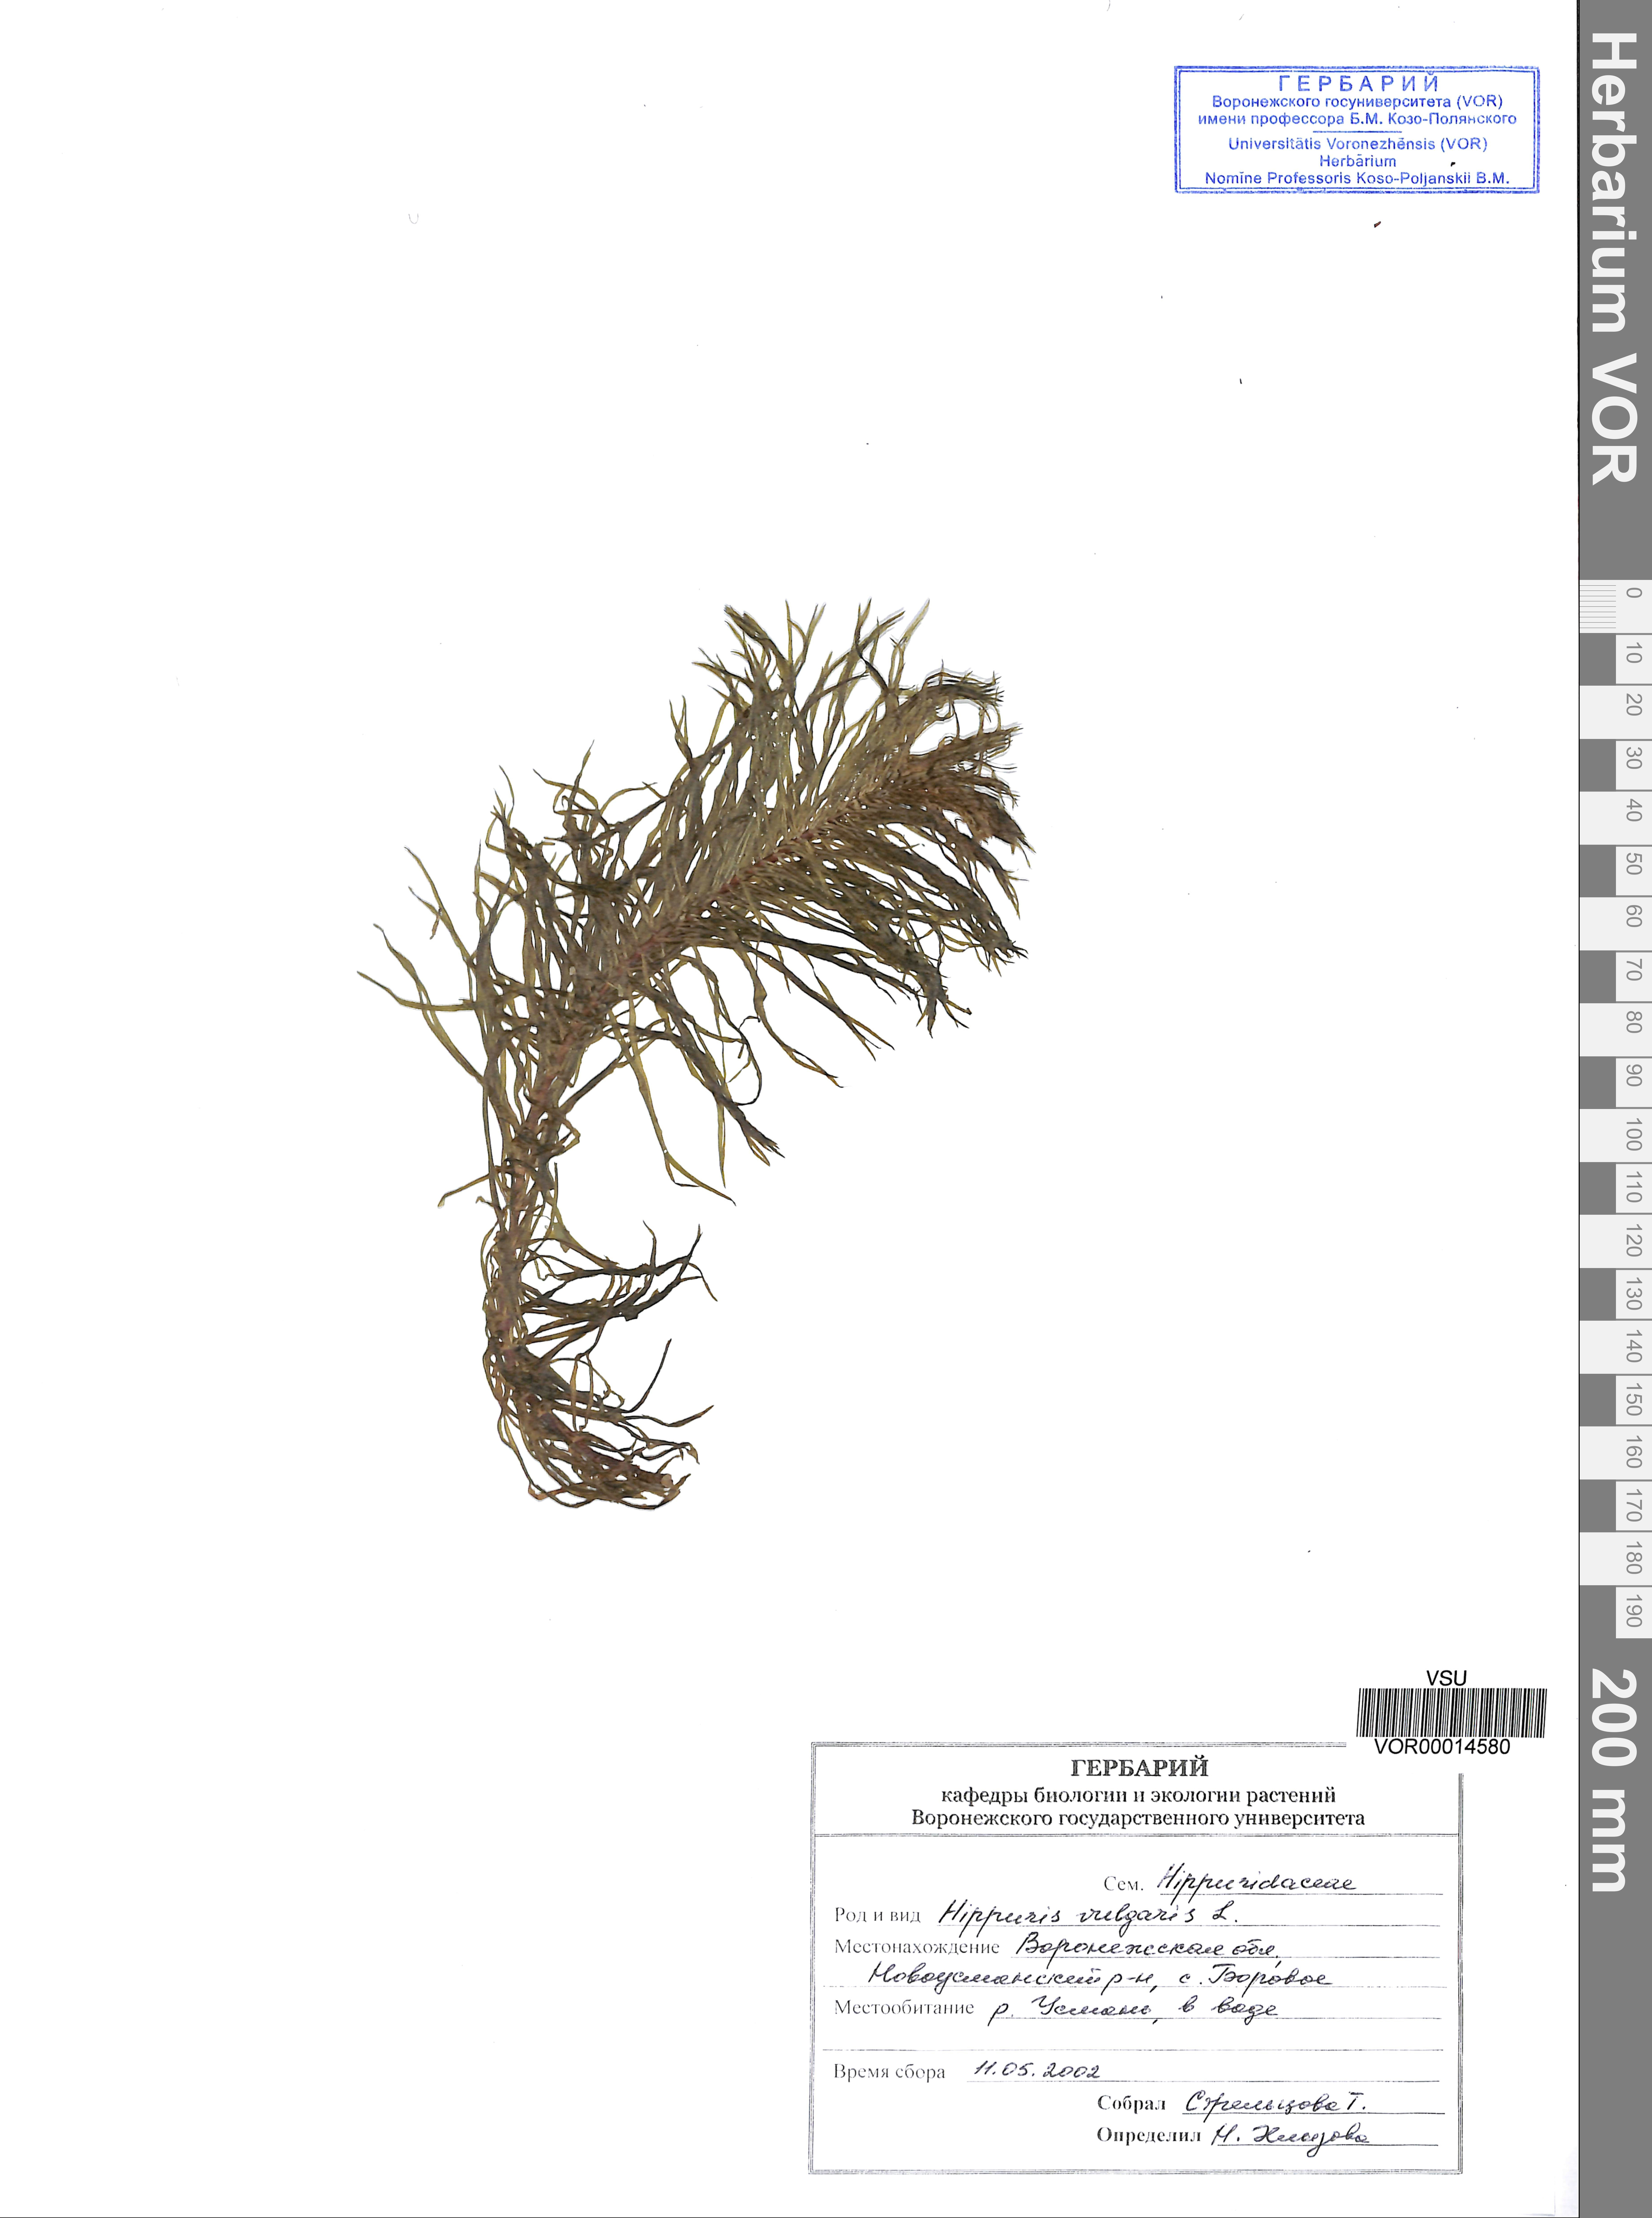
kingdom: Plantae
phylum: Tracheophyta
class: Magnoliopsida
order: Lamiales
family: Plantaginaceae
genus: Hippuris
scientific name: Hippuris vulgaris
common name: Mare's-tail
